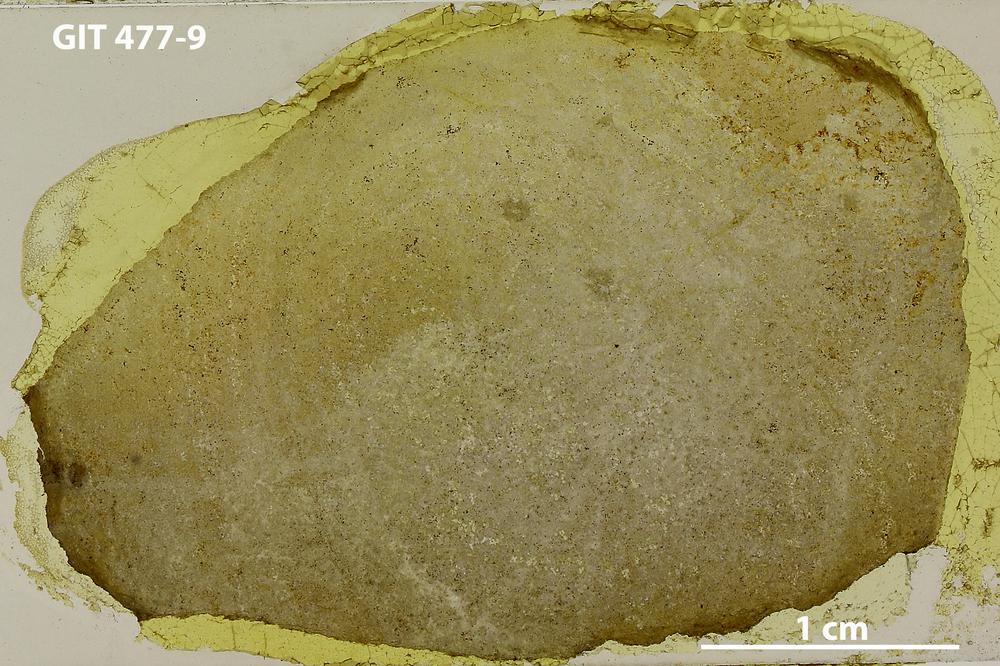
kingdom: Animalia
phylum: Porifera
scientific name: Porifera
